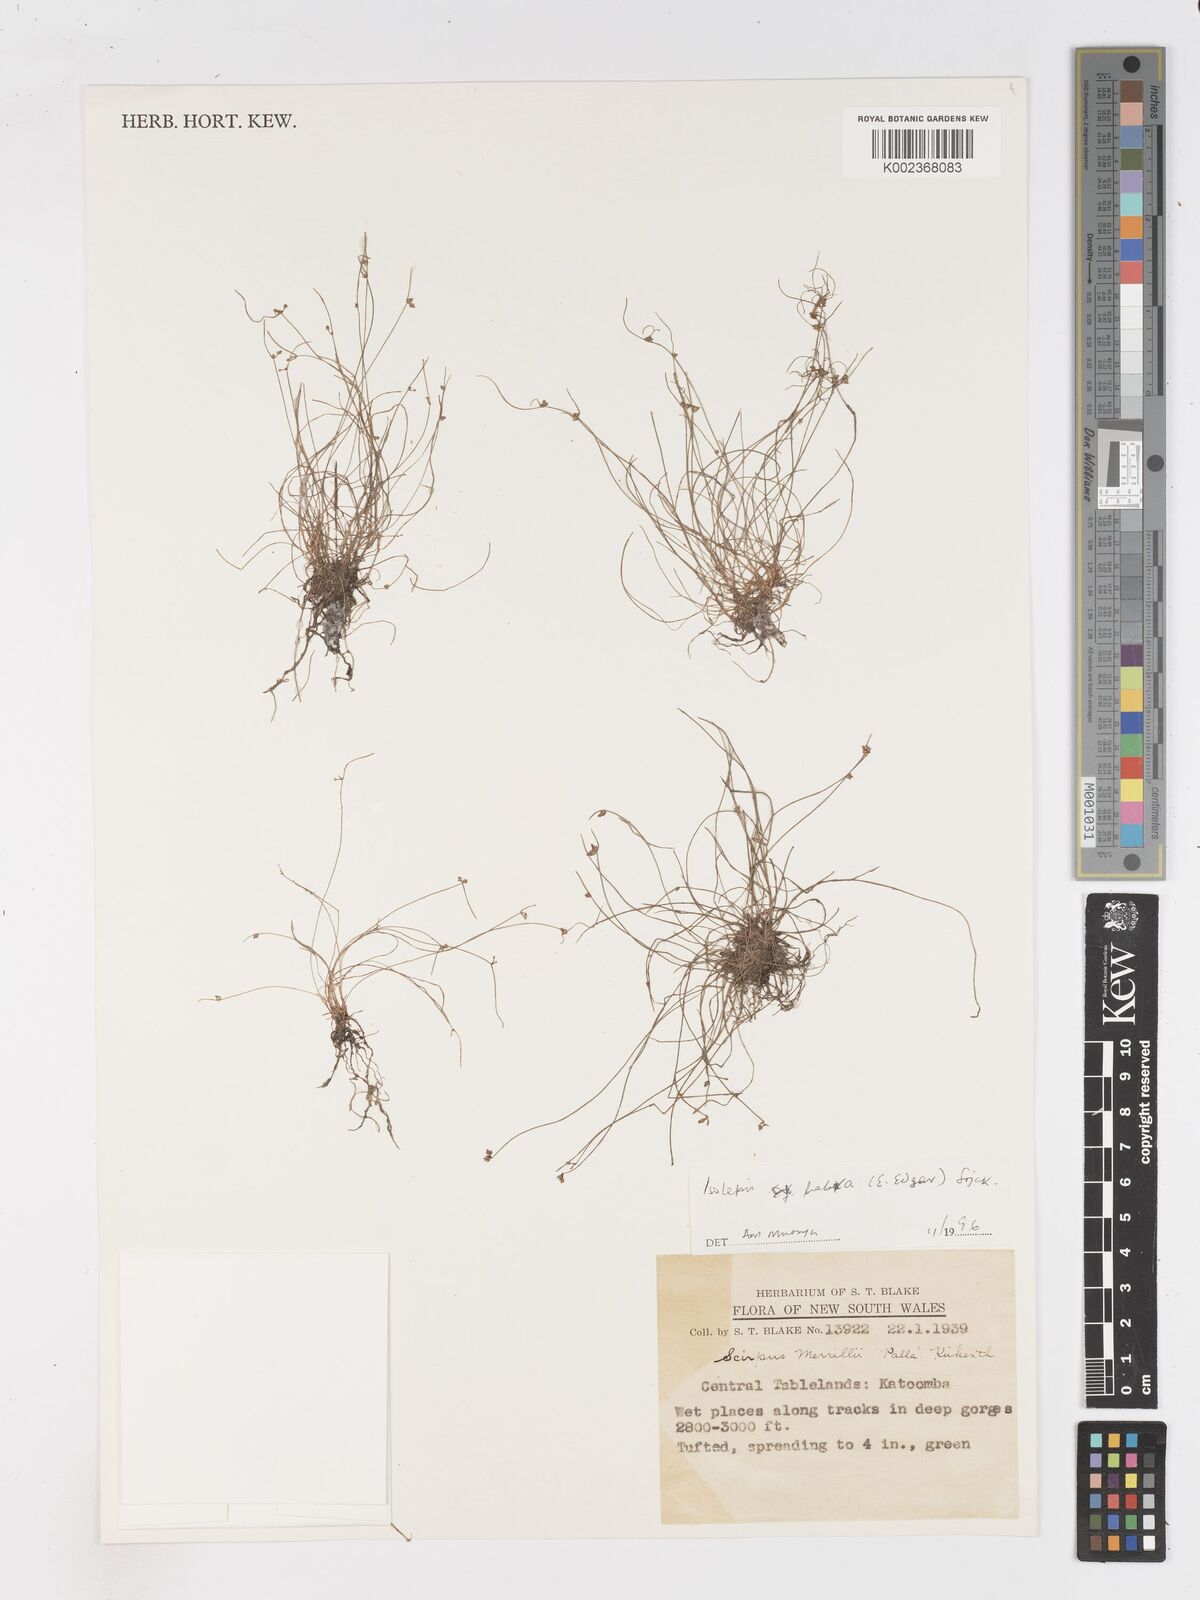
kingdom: Plantae
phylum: Tracheophyta
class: Liliopsida
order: Poales
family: Cyperaceae
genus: Isolepis
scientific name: Isolepis habra
